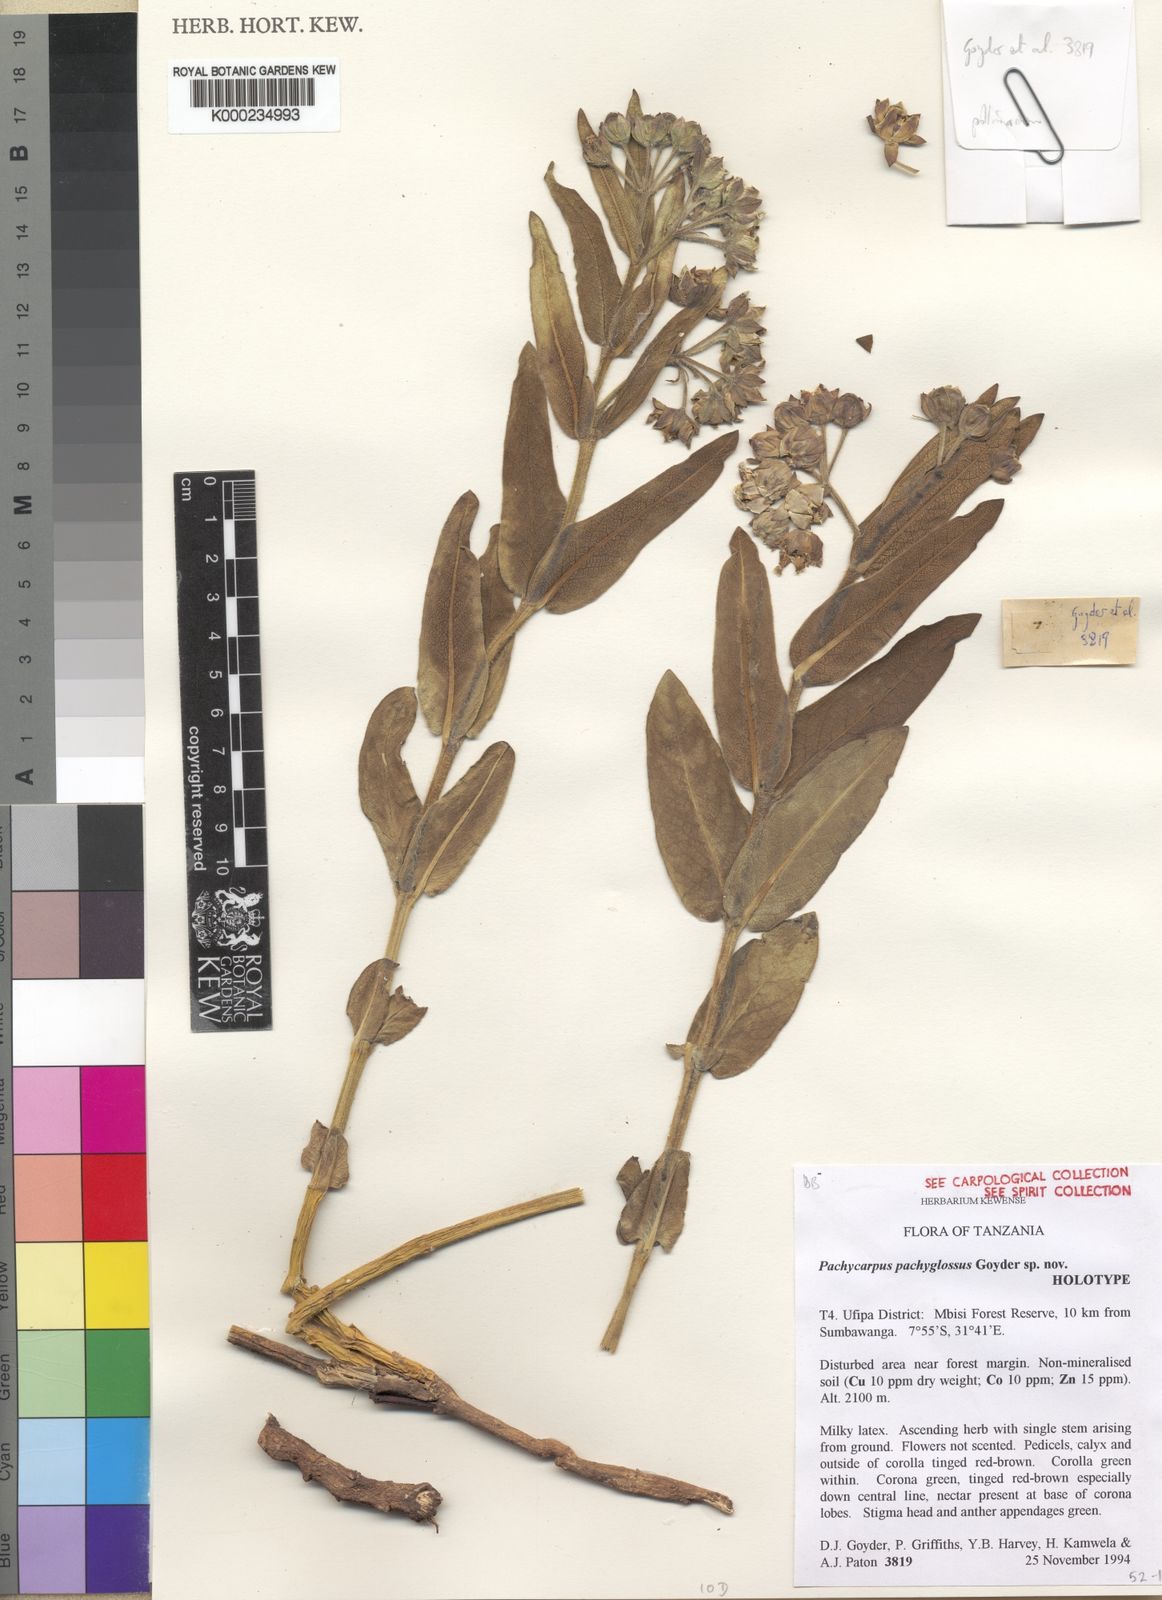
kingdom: Plantae
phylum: Tracheophyta
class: Magnoliopsida
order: Gentianales
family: Apocynaceae
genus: Pachycarpus
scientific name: Pachycarpus pachyglossus
